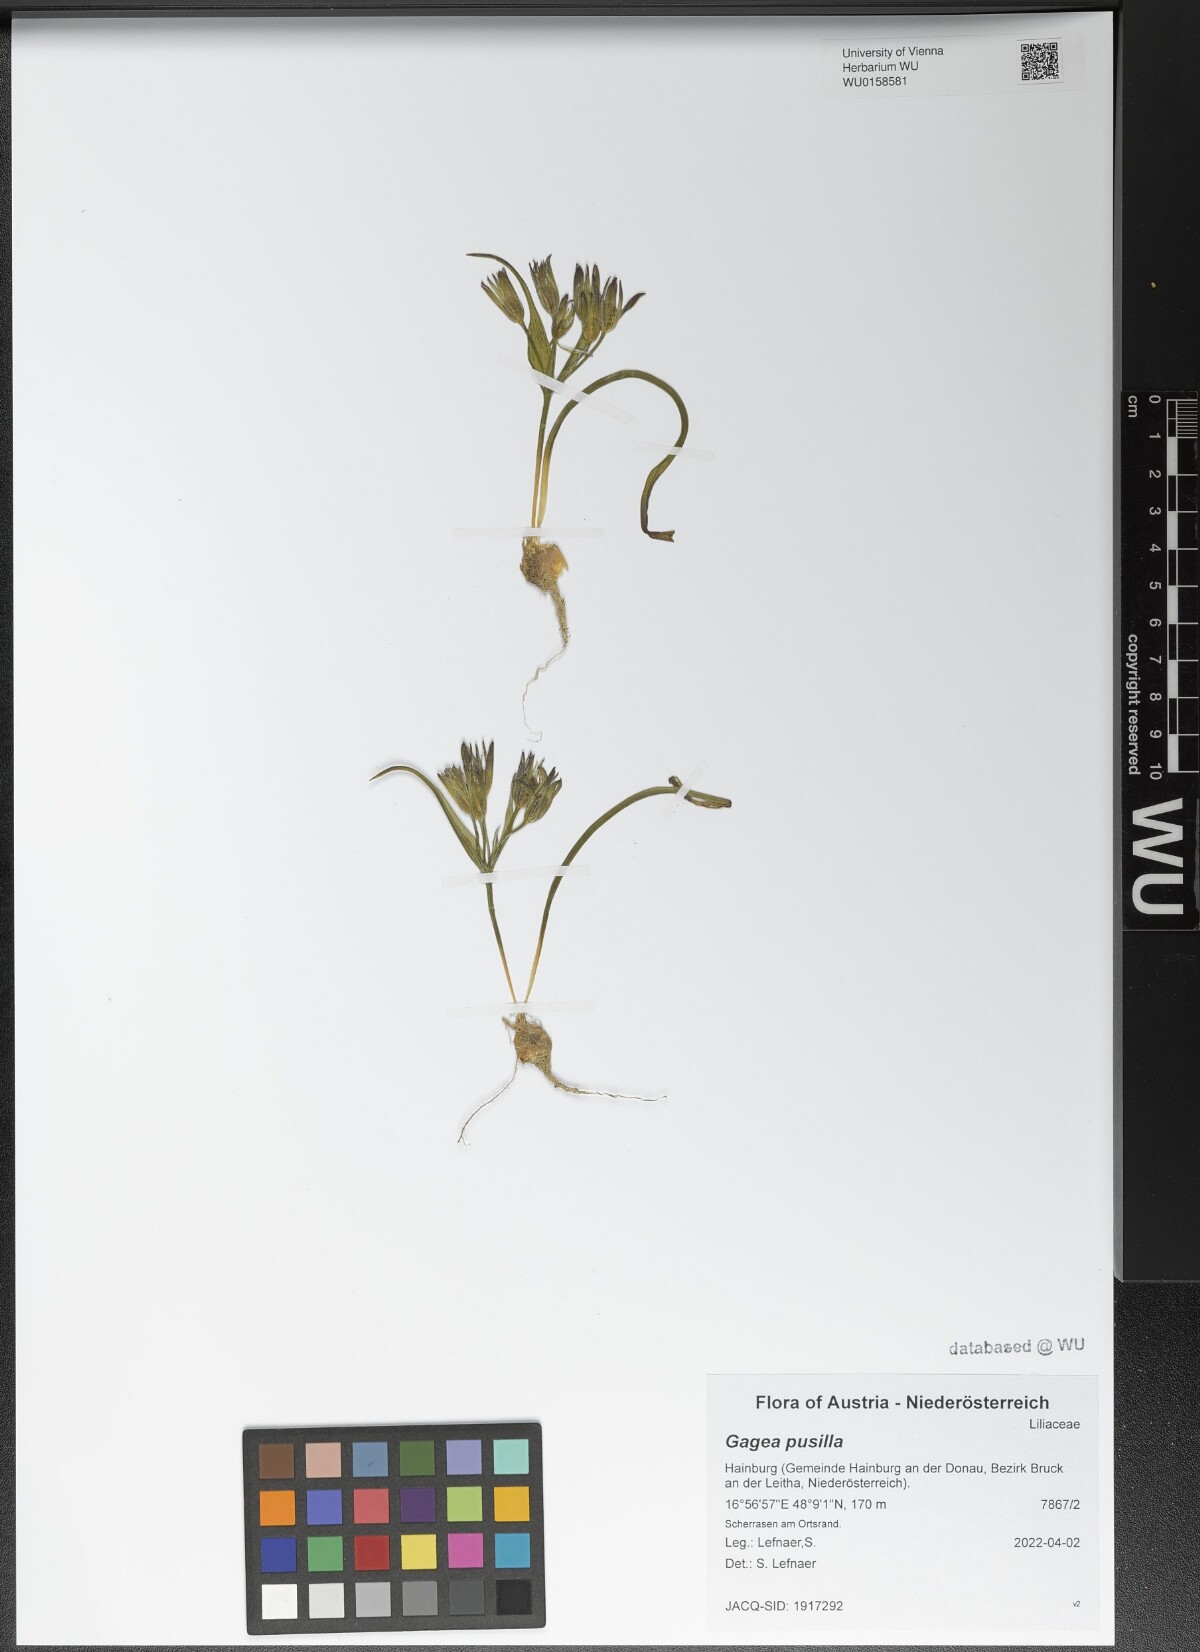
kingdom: Plantae
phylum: Tracheophyta
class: Liliopsida
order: Liliales
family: Liliaceae
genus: Gagea
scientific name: Gagea pusilla
